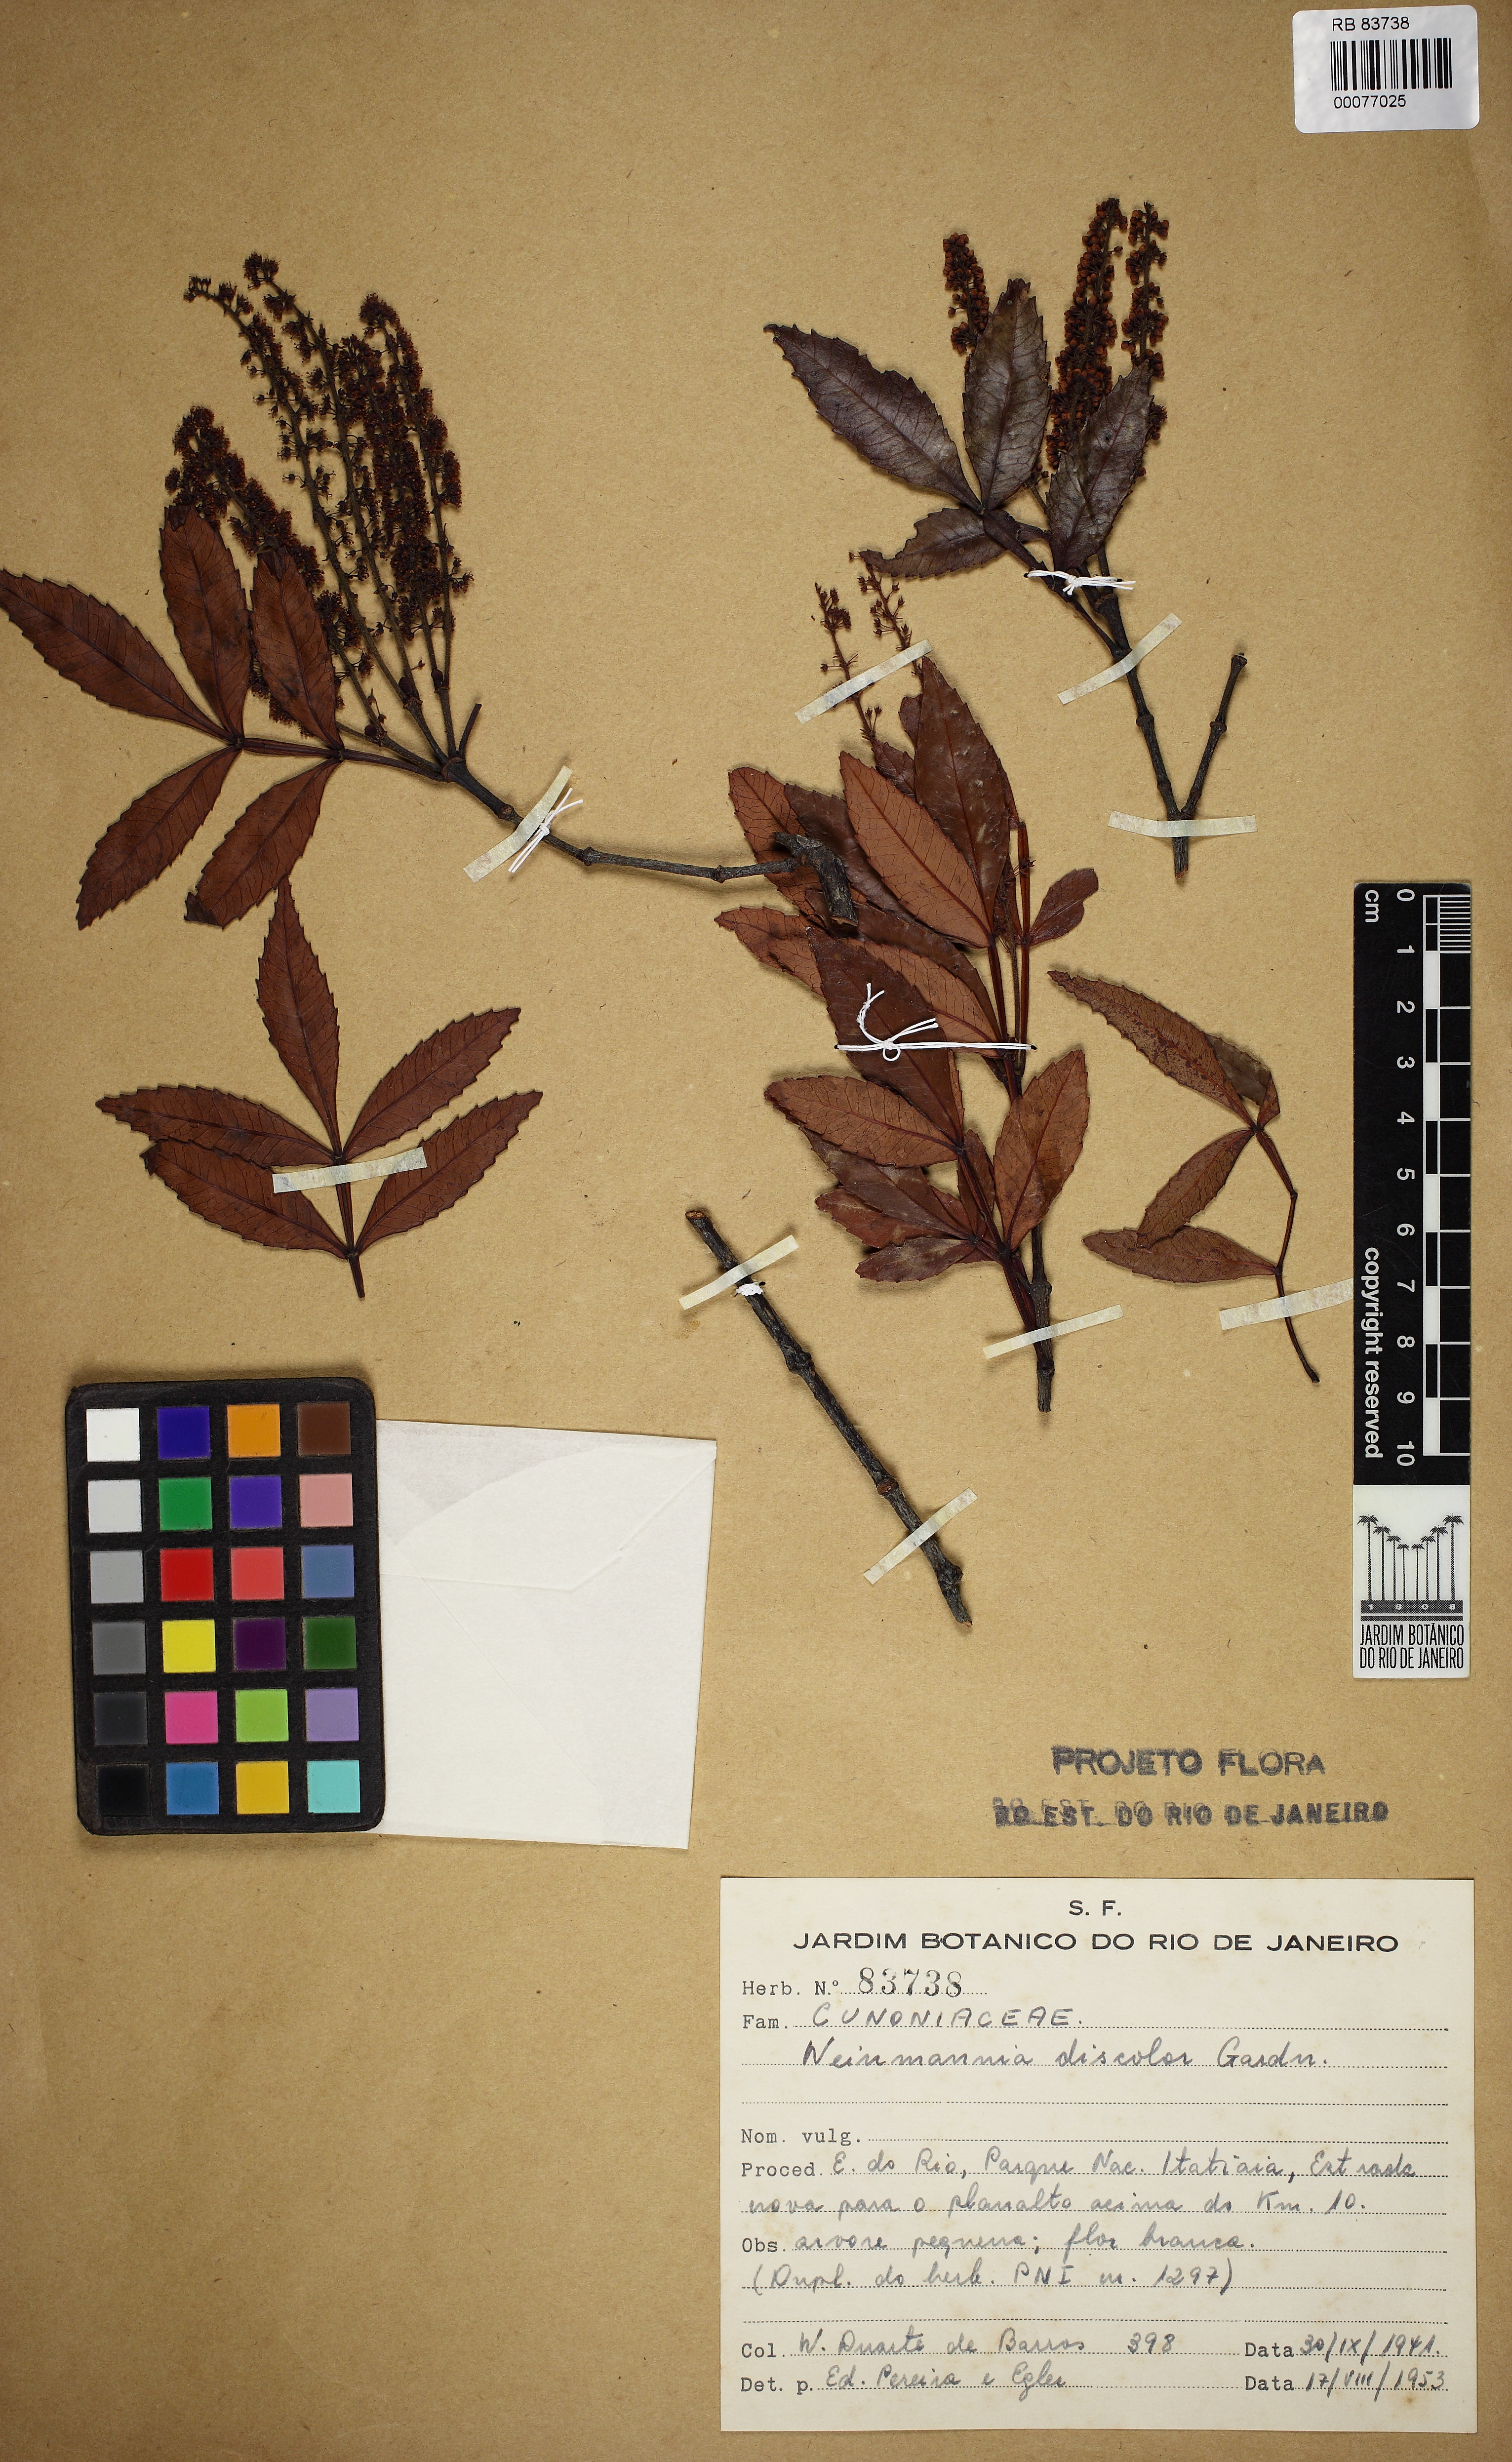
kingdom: Plantae
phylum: Tracheophyta
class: Magnoliopsida
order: Oxalidales
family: Cunoniaceae
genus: Weinmannia
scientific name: Weinmannia discolor
